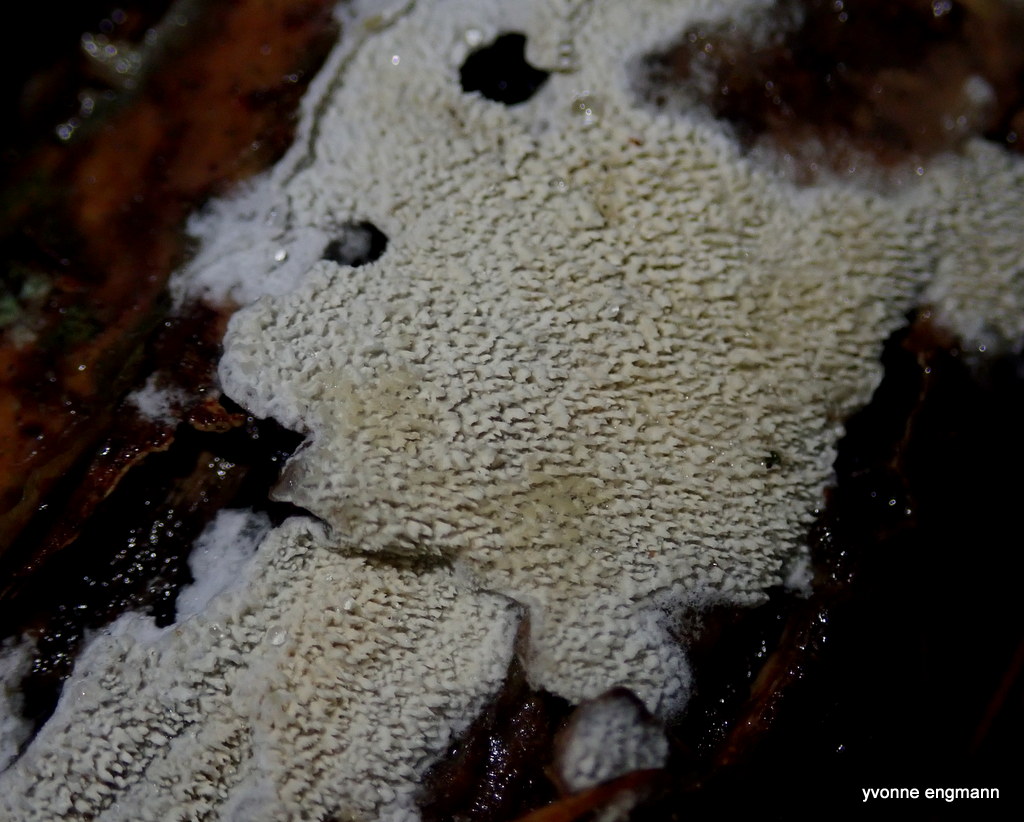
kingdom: Fungi
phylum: Basidiomycota
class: Agaricomycetes
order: Hymenochaetales
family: Schizoporaceae
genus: Schizopora
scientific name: Schizopora paradoxa
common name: hvid tandsvamp
